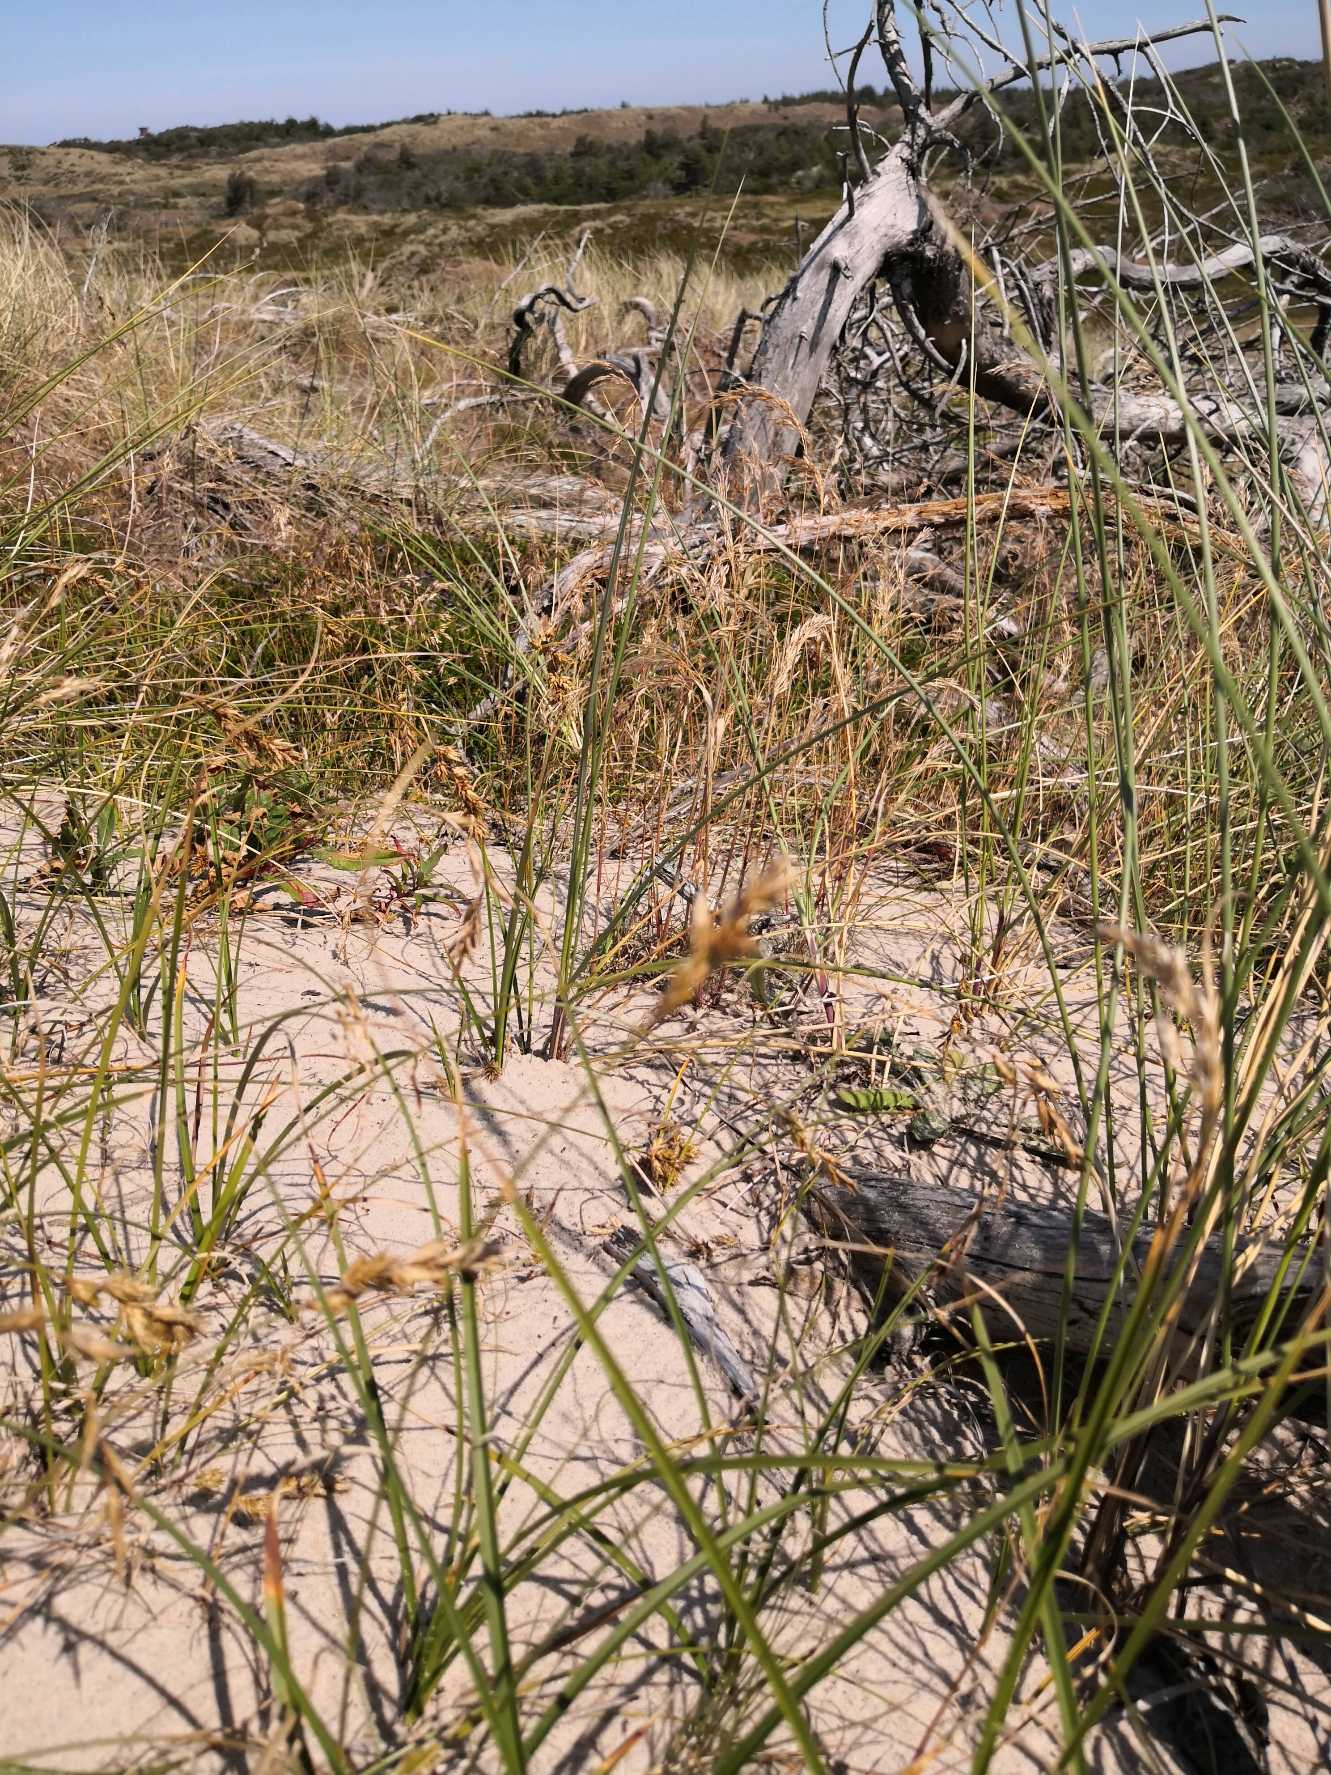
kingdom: Plantae
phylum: Tracheophyta
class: Liliopsida
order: Poales
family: Cyperaceae
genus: Carex
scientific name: Carex arenaria
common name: Sand-star
